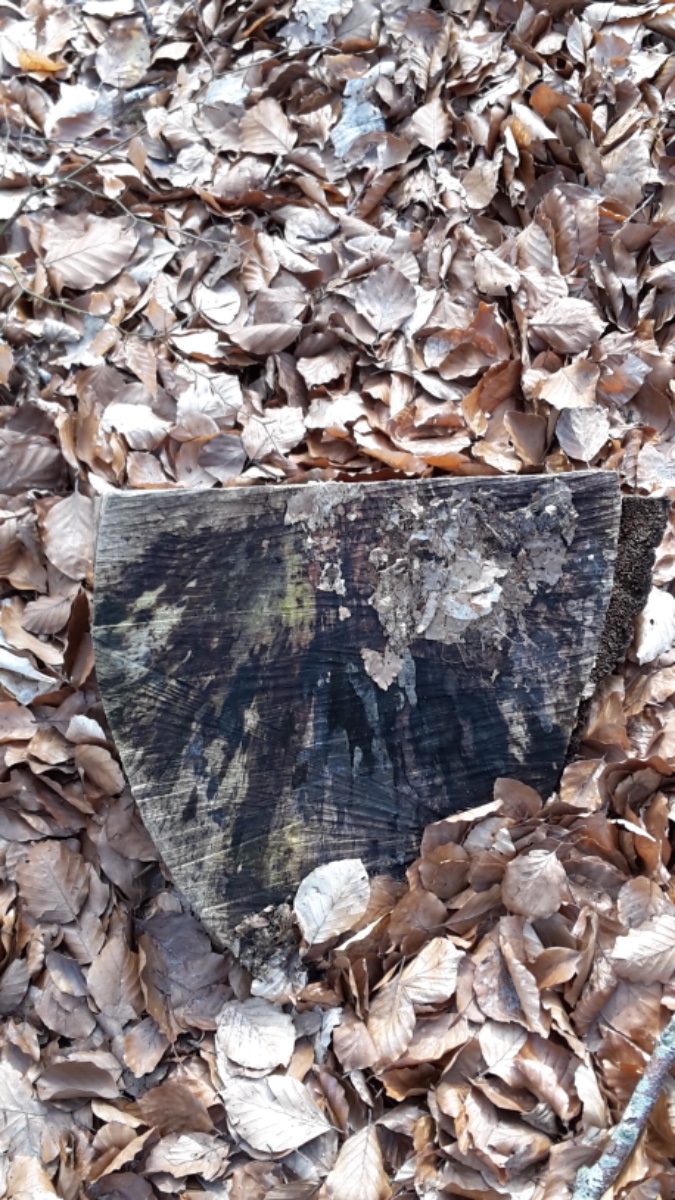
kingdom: Fungi
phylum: Ascomycota
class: Leotiomycetes
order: Helotiales
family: Helotiaceae
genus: Bispora
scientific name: Bispora pallescens
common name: måtte-snitskive
